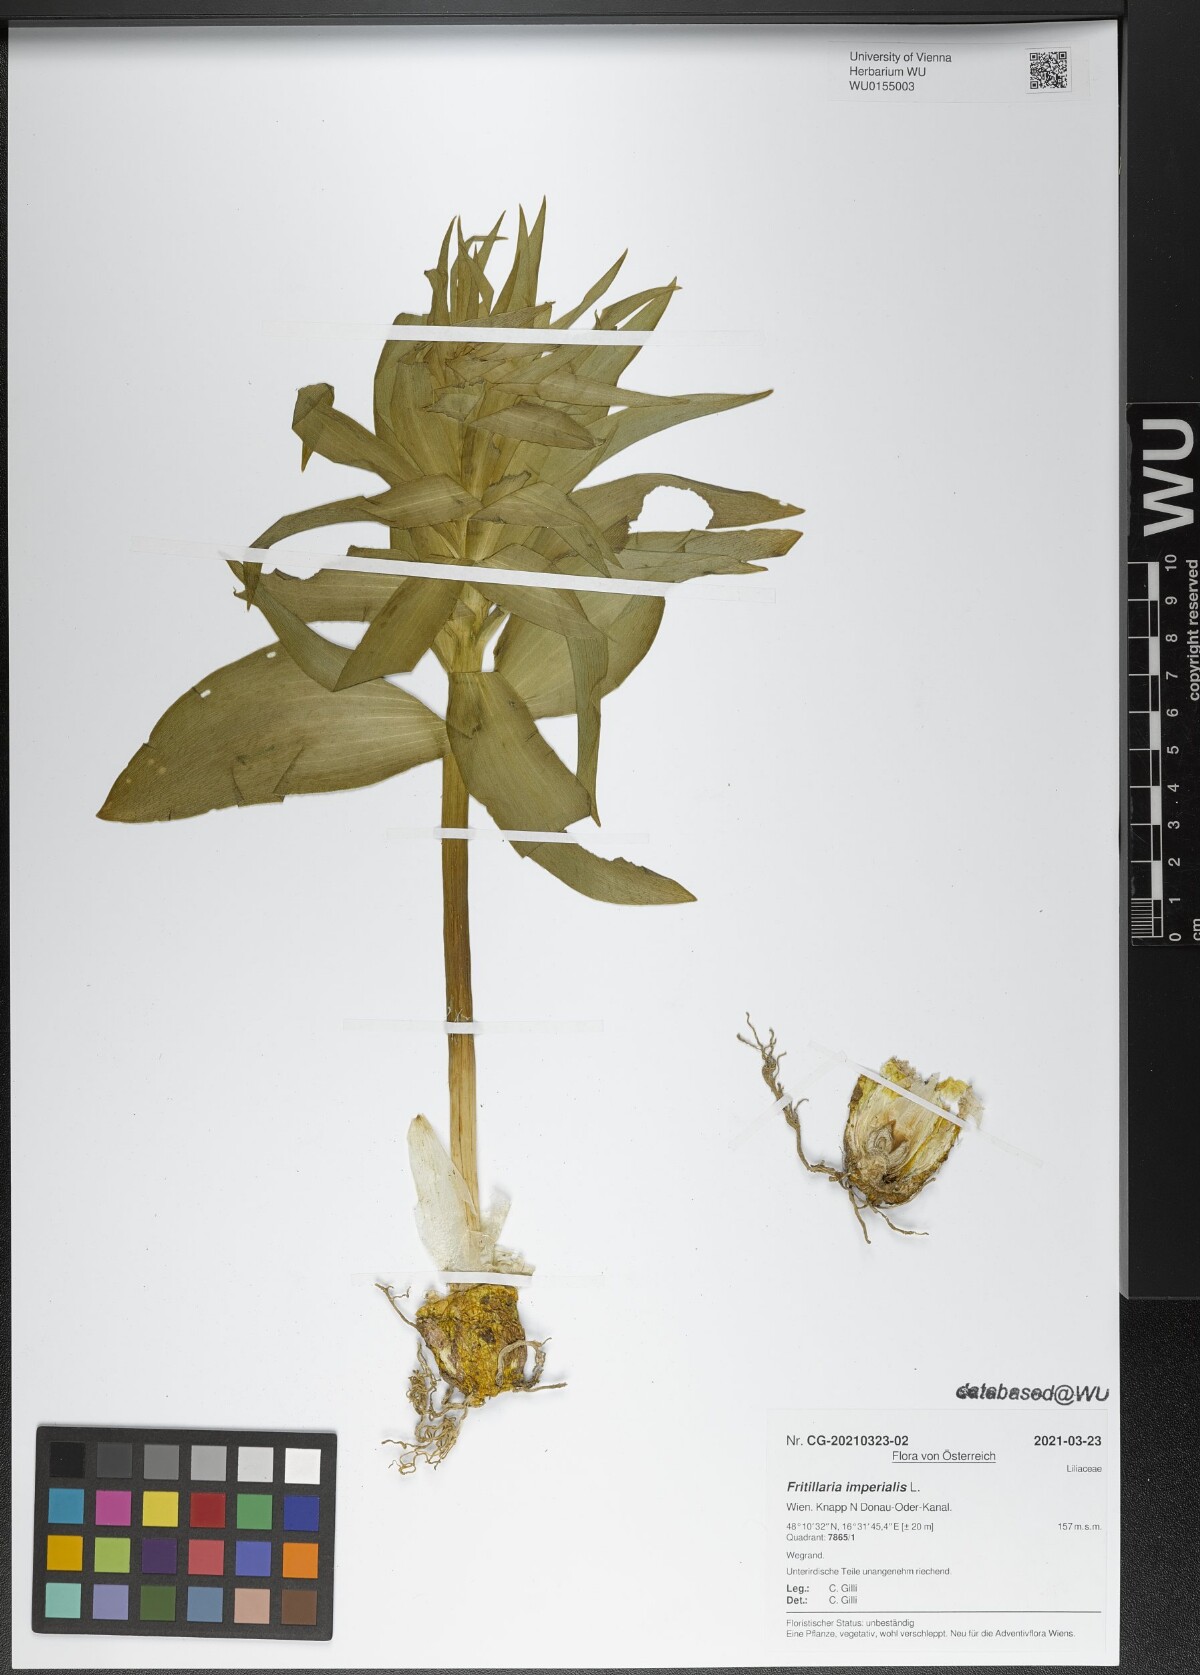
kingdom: Plantae
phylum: Tracheophyta
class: Liliopsida
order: Liliales
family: Liliaceae
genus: Fritillaria
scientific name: Fritillaria imperialis
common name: Imperial fritillary
